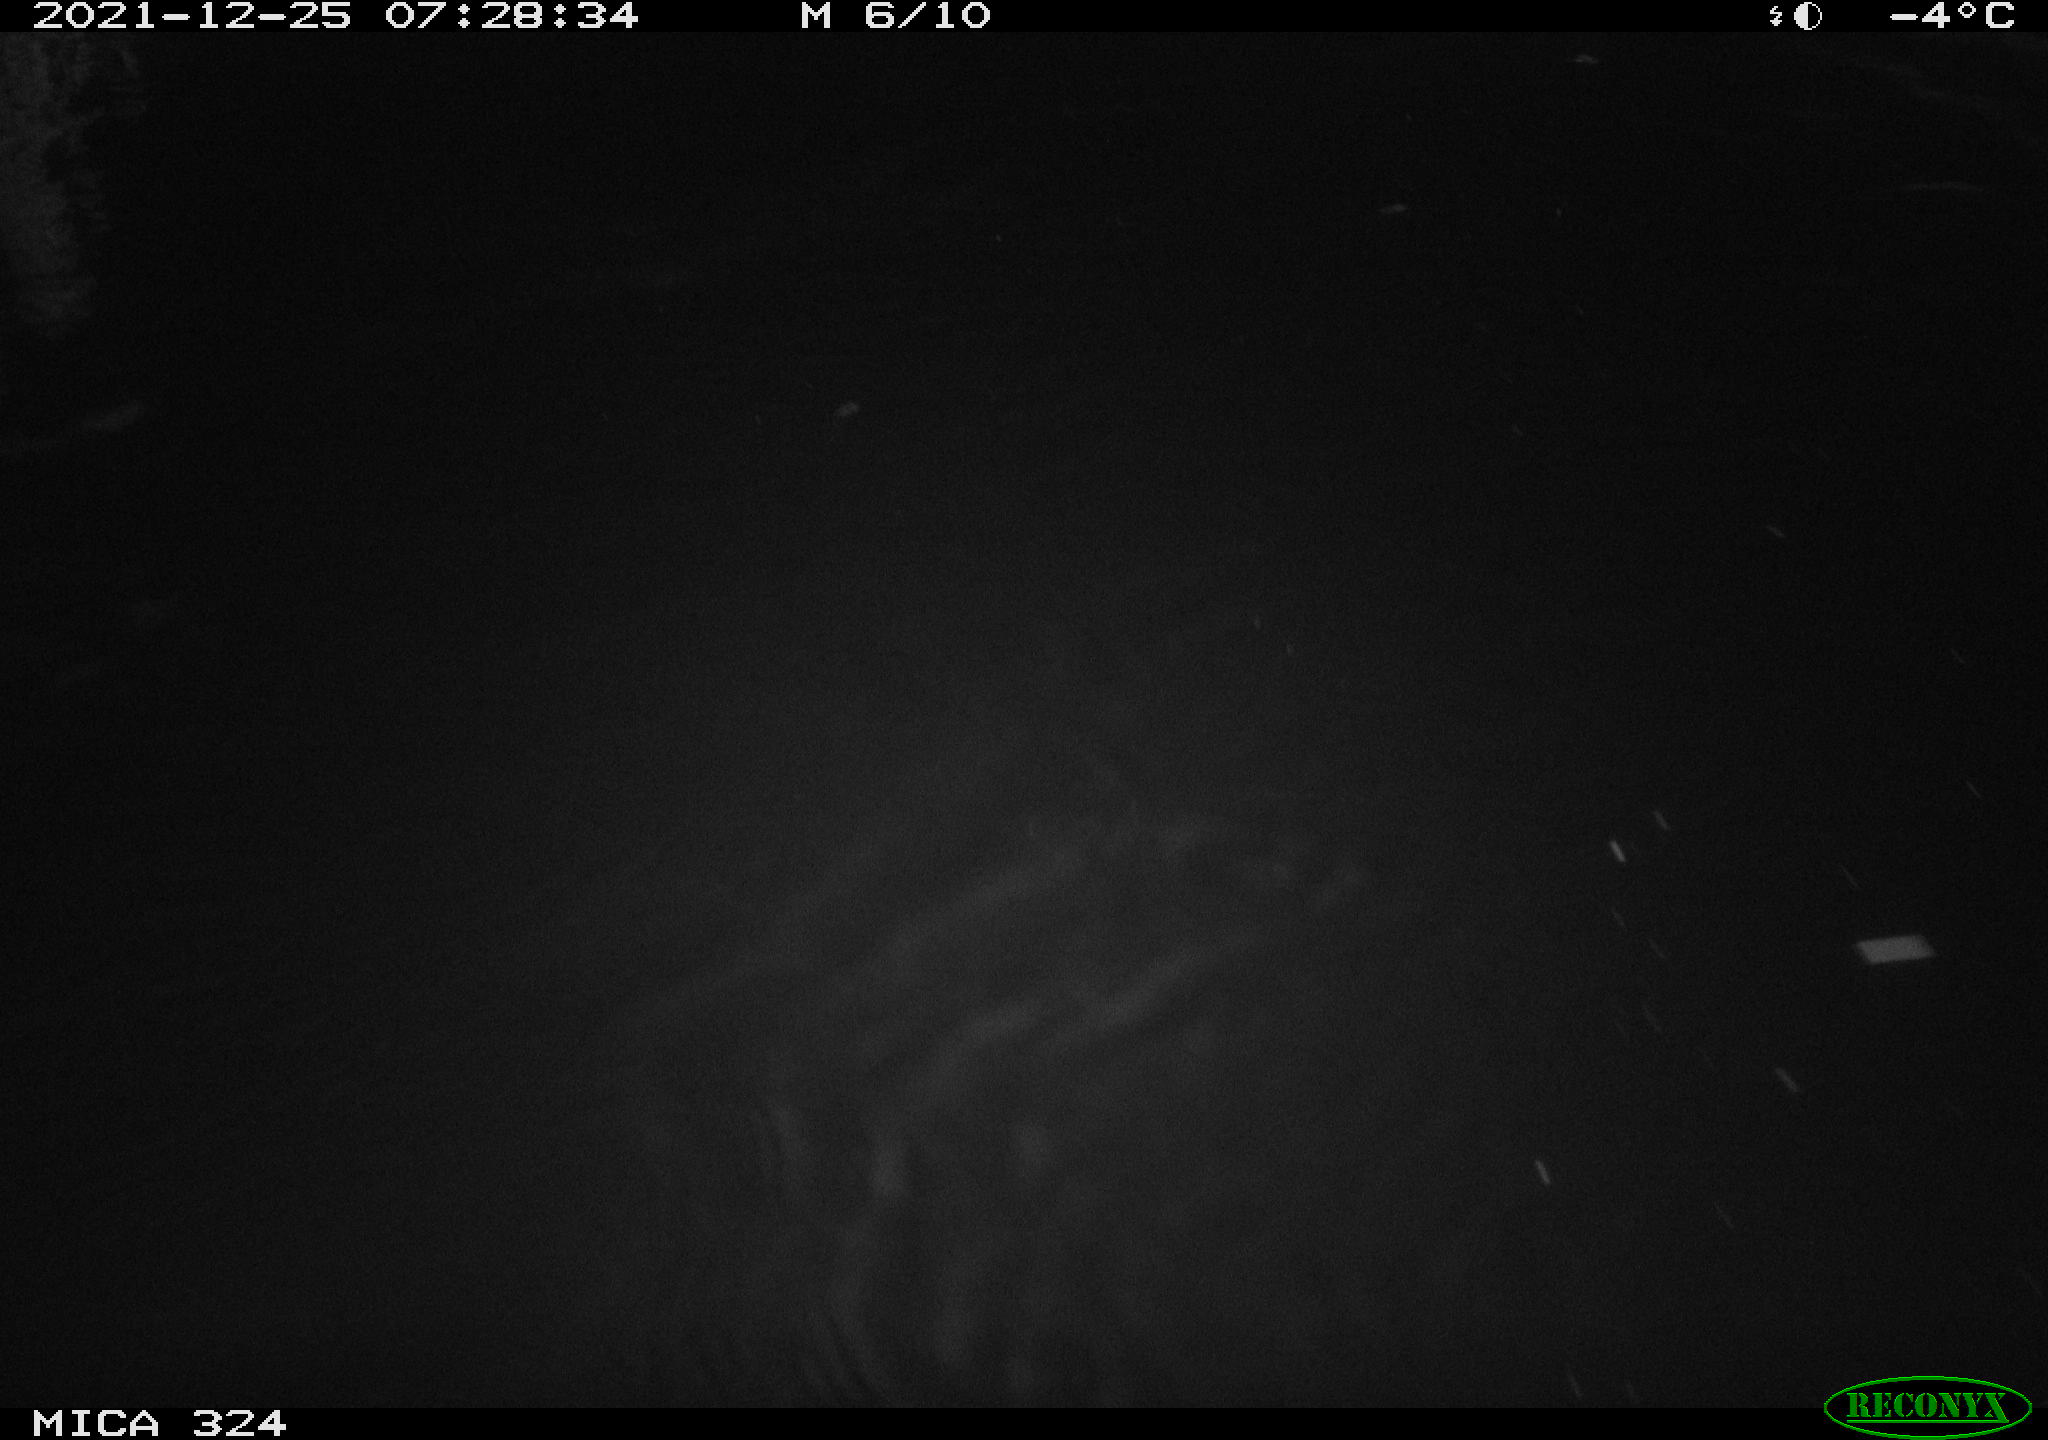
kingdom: Animalia
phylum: Chordata
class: Mammalia
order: Rodentia
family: Cricetidae
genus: Ondatra
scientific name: Ondatra zibethicus
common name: Muskrat
